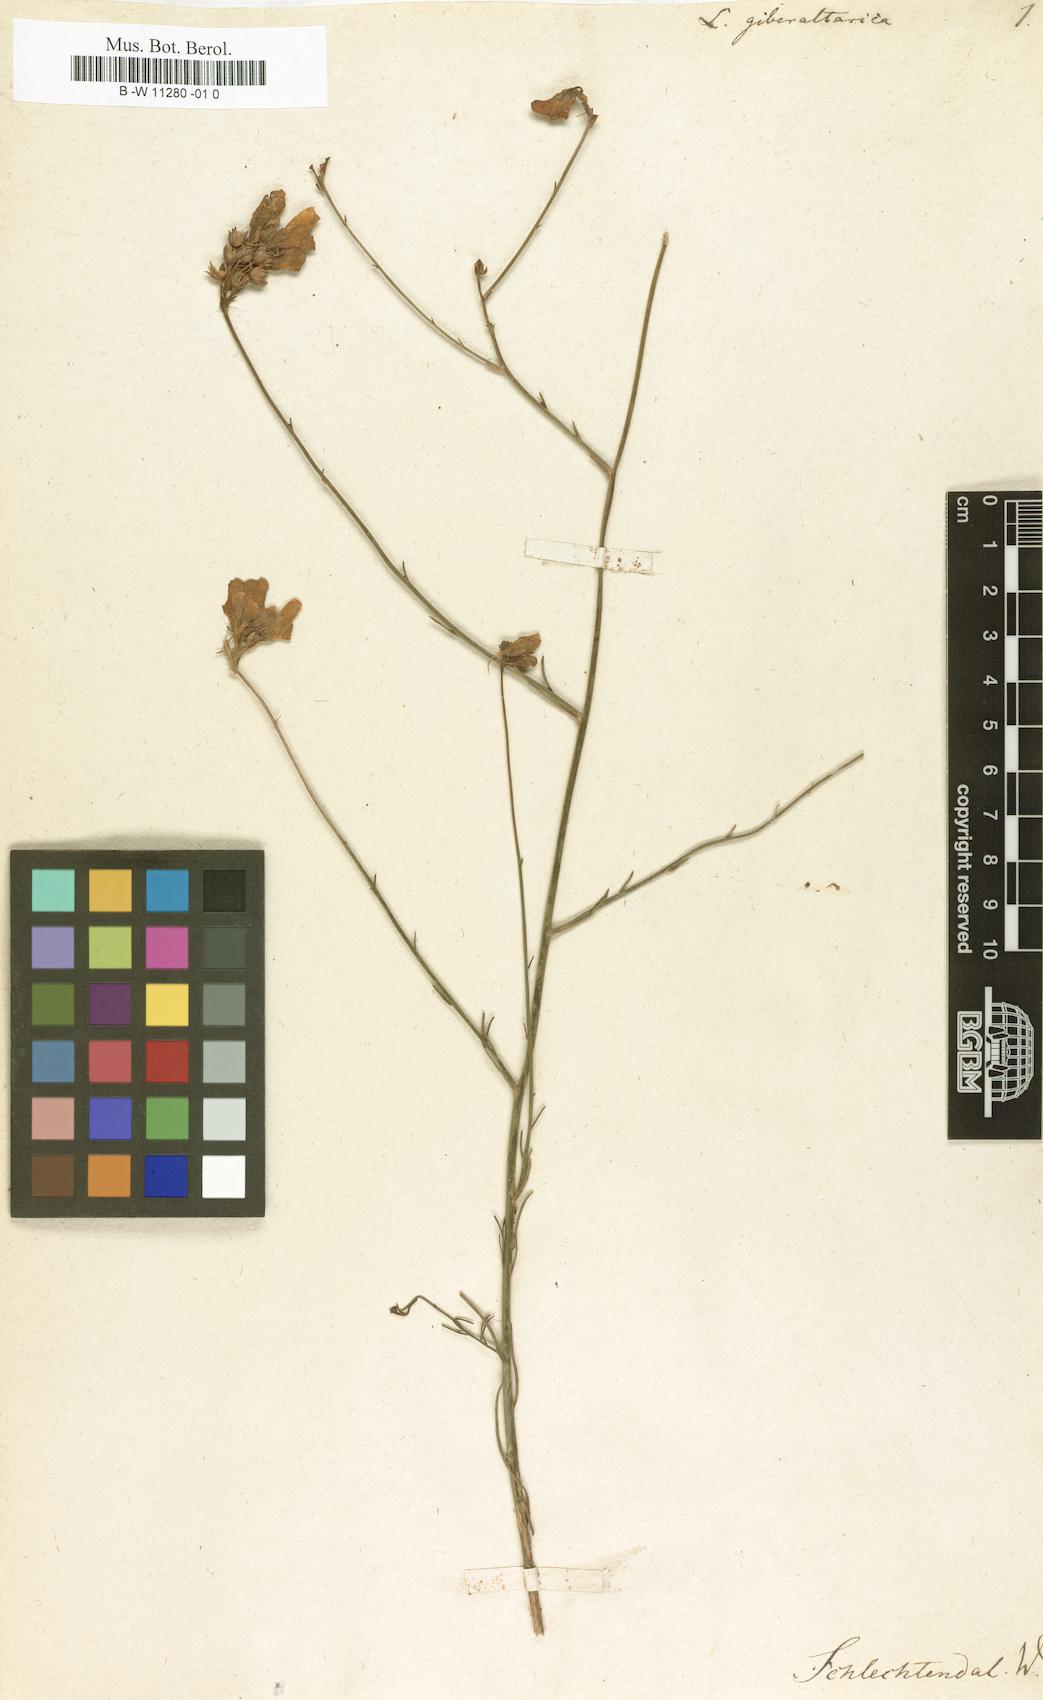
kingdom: Plantae
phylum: Tracheophyta
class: Magnoliopsida
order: Lamiales
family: Plantaginaceae
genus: Linaria
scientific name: Linaria
